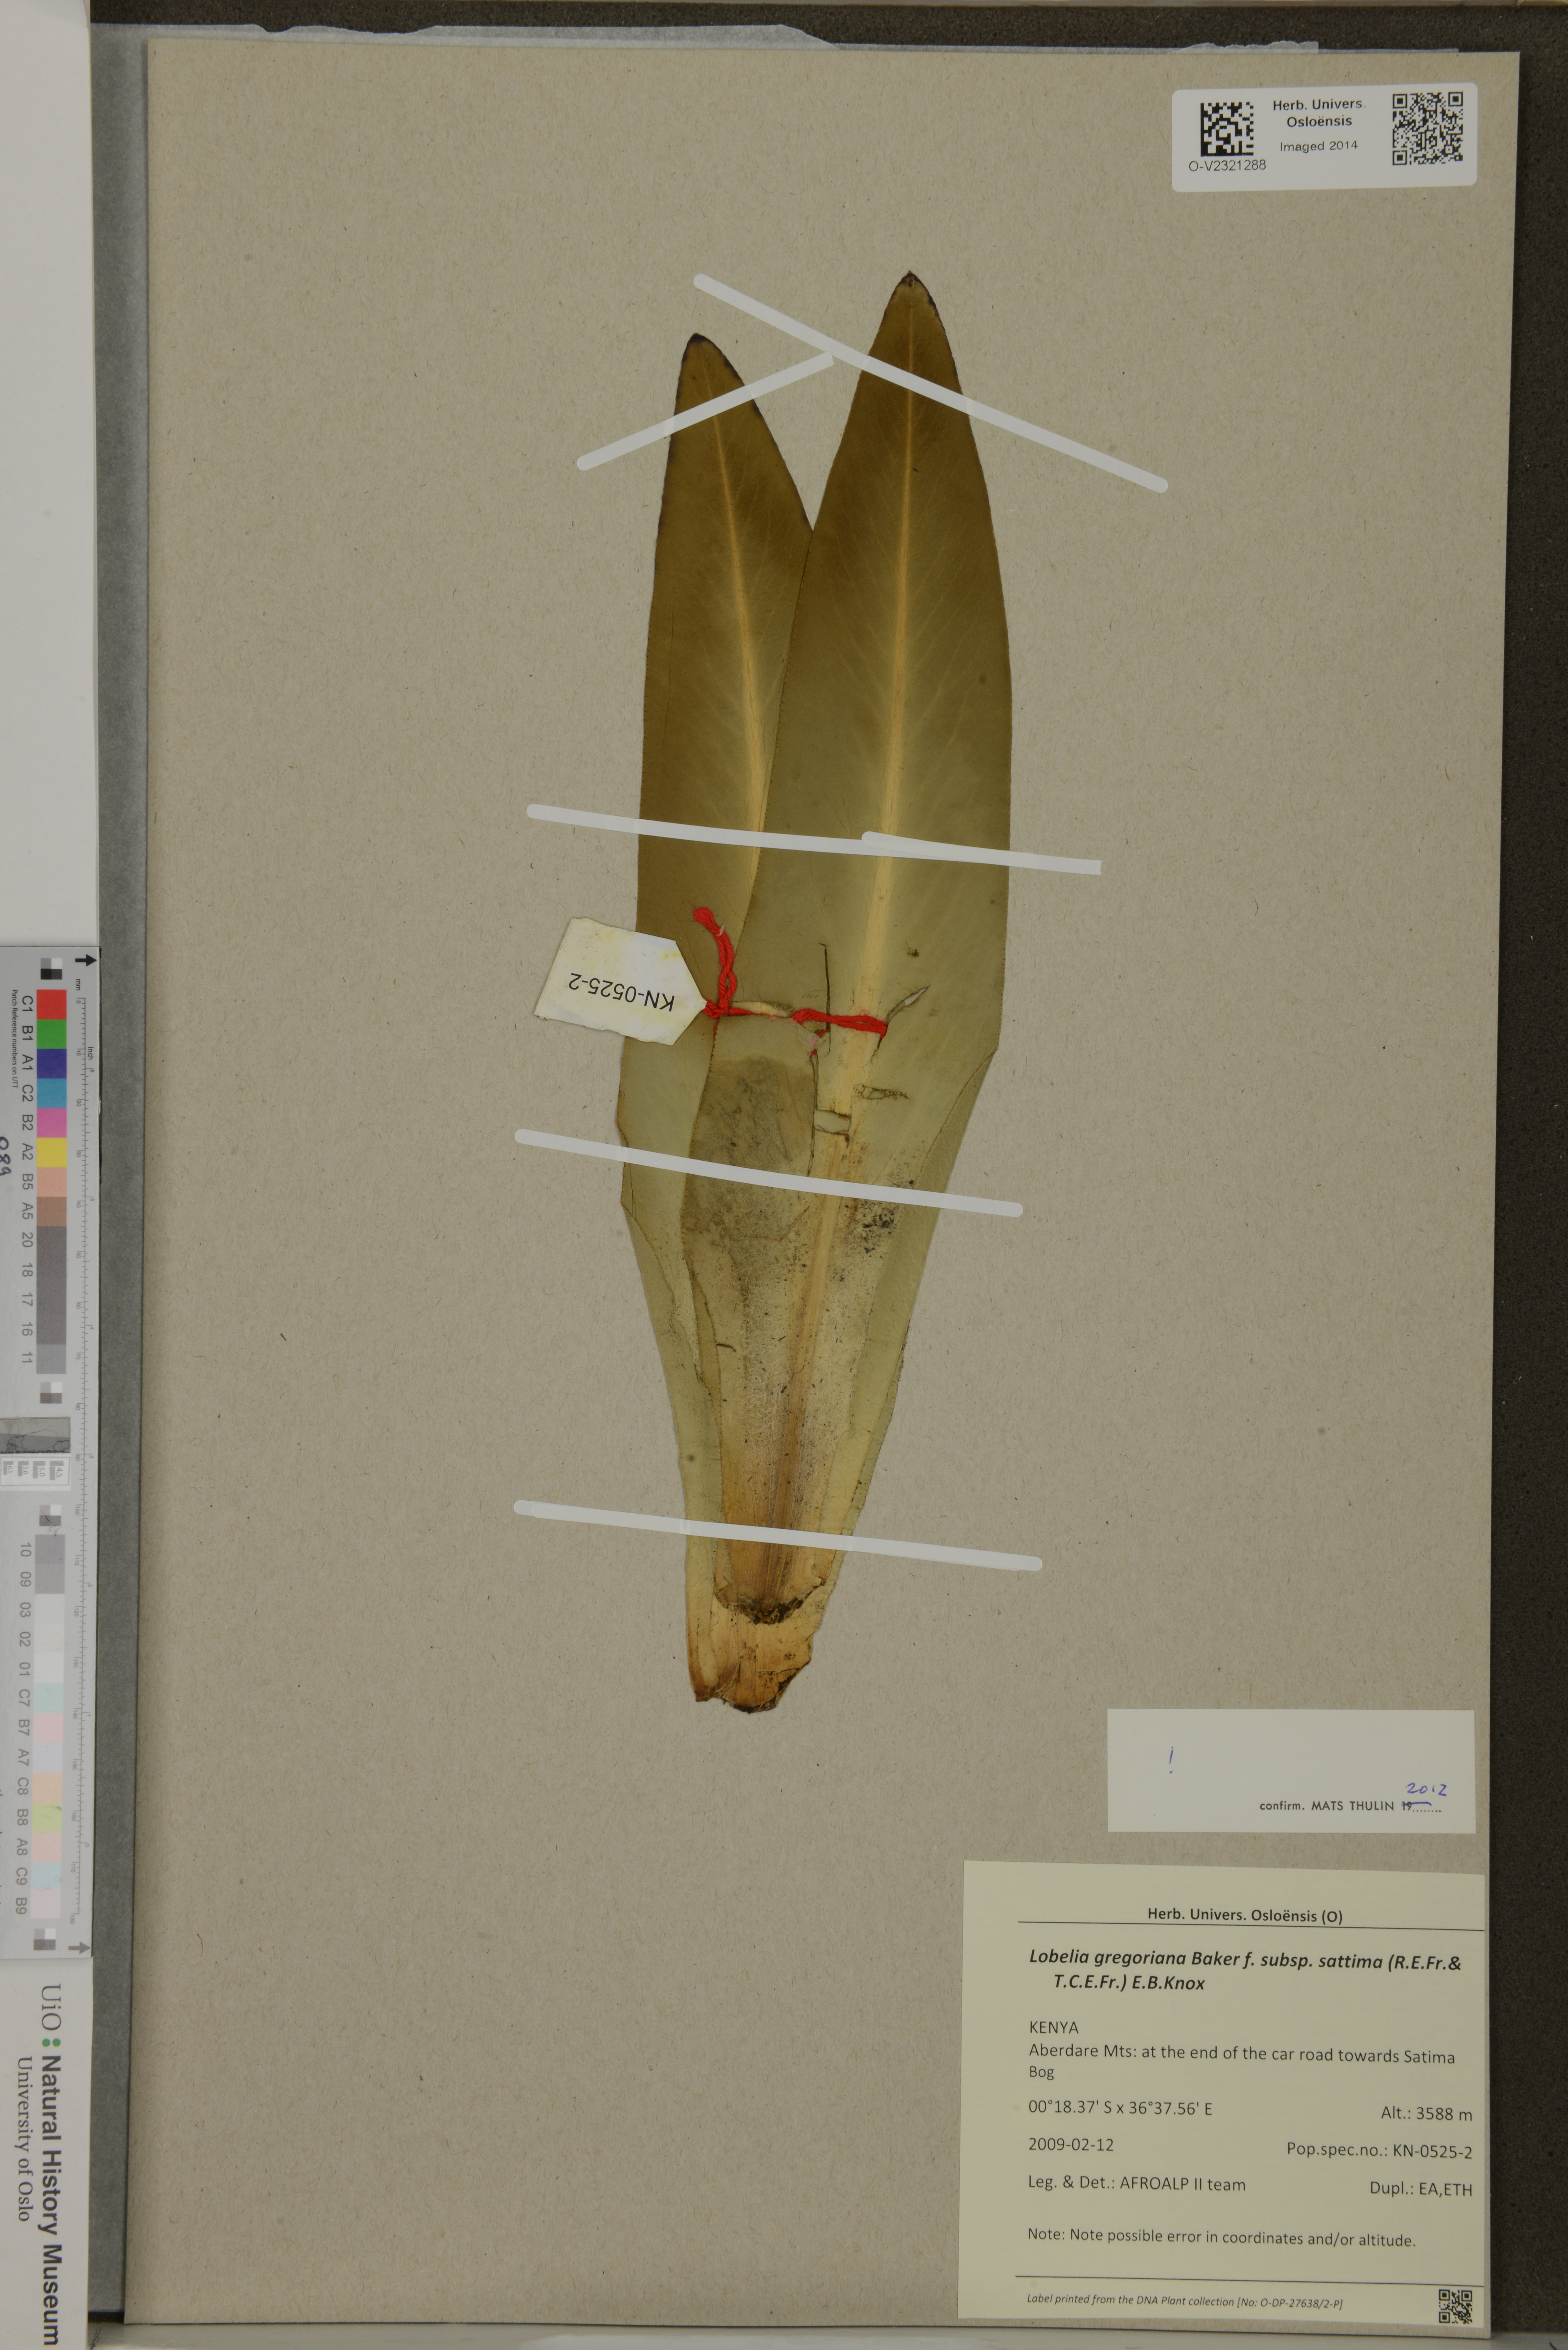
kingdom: Plantae
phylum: Tracheophyta
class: Magnoliopsida
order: Asterales
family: Campanulaceae
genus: Lobelia
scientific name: Lobelia gregoriana
